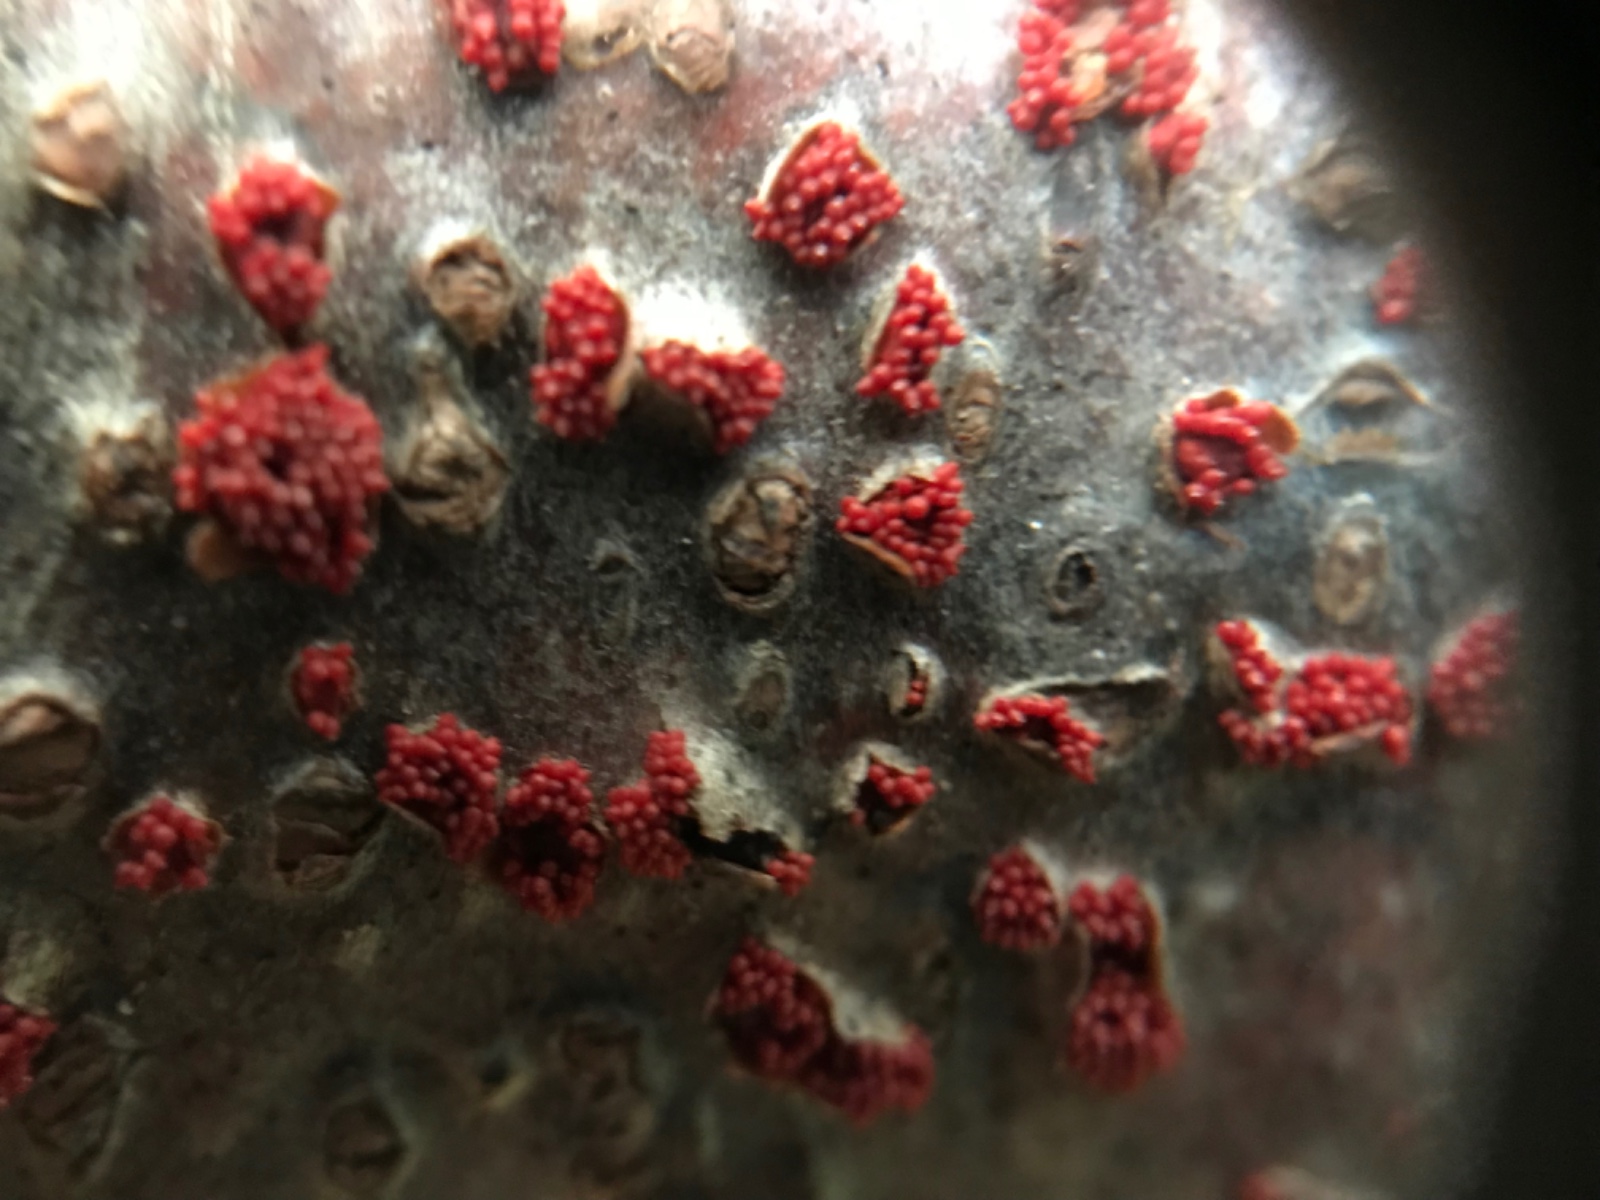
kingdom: Fungi
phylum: Ascomycota
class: Sordariomycetes
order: Hypocreales
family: Nectriaceae
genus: Neonectria
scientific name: Neonectria coccinea
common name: bøgebark-cinnobersvamp
